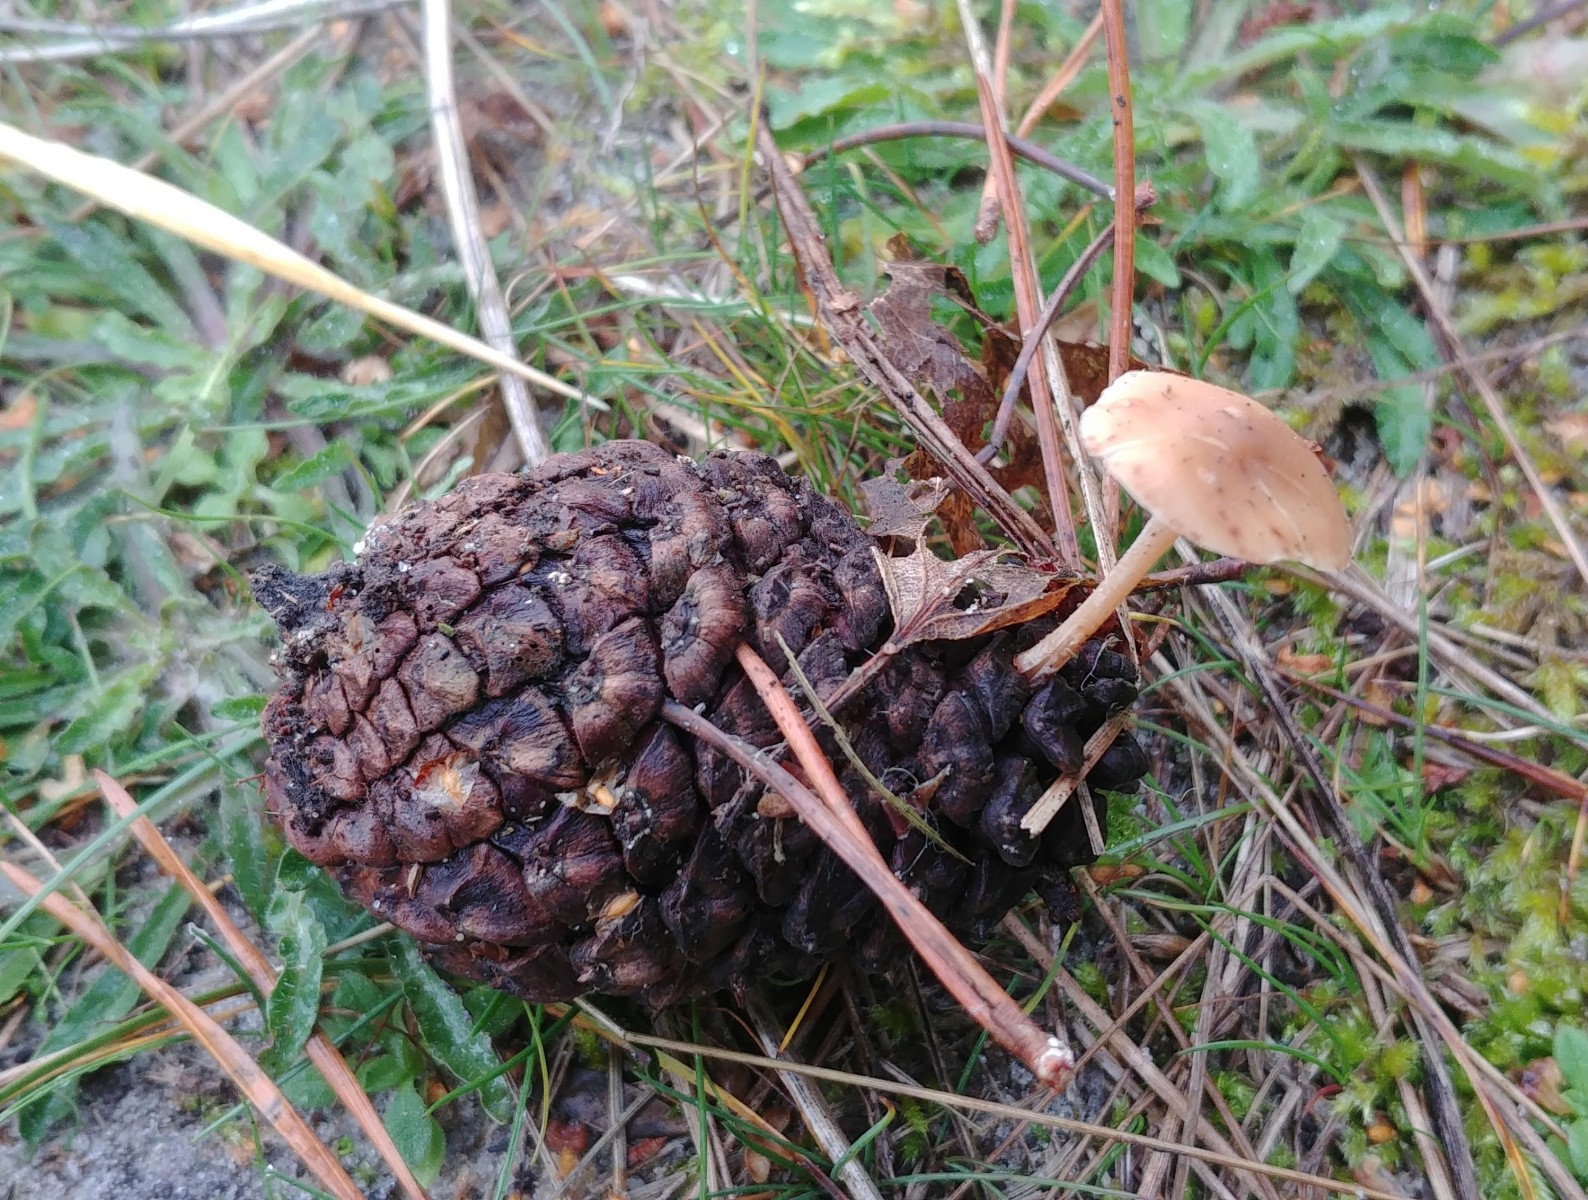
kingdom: Fungi
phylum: Basidiomycota
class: Agaricomycetes
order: Agaricales
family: Marasmiaceae
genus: Baeospora
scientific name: Baeospora myosura
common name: koglebruskhat
